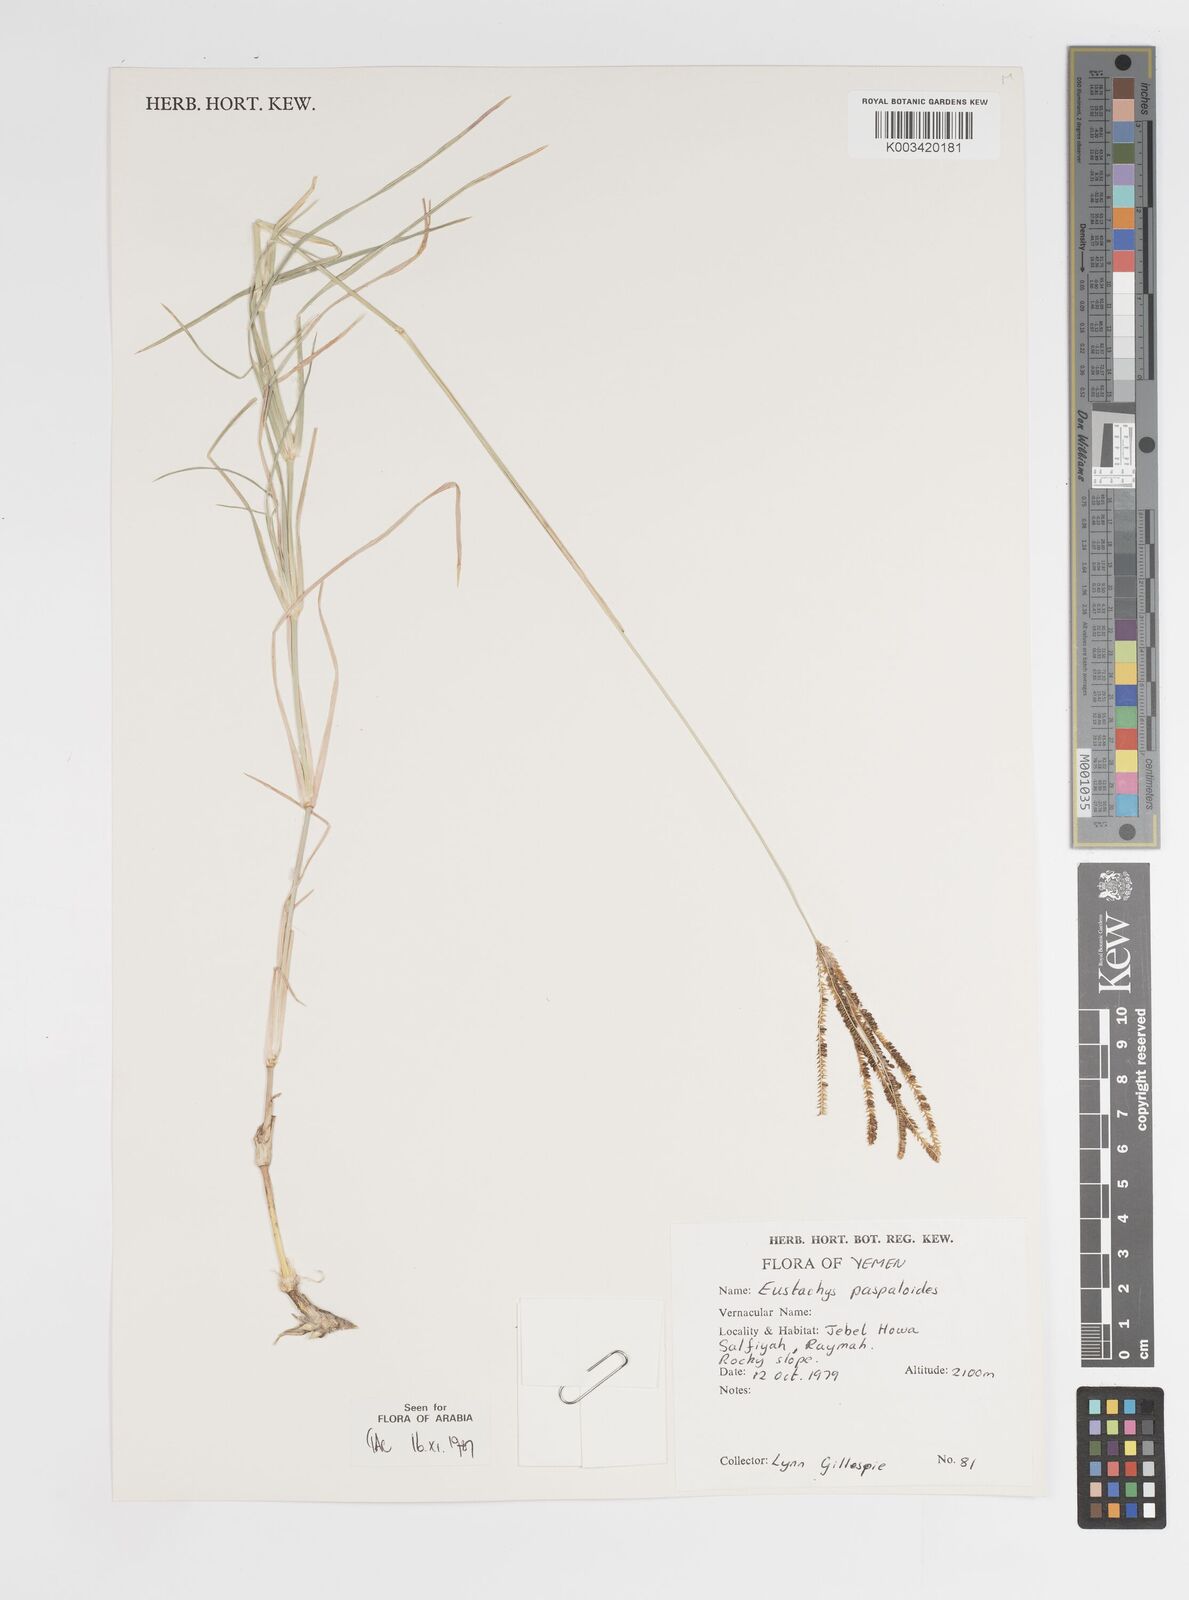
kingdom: Plantae
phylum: Tracheophyta
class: Liliopsida
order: Poales
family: Poaceae
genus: Eustachys
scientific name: Eustachys paspaloides
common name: Caribbean fingergrass
